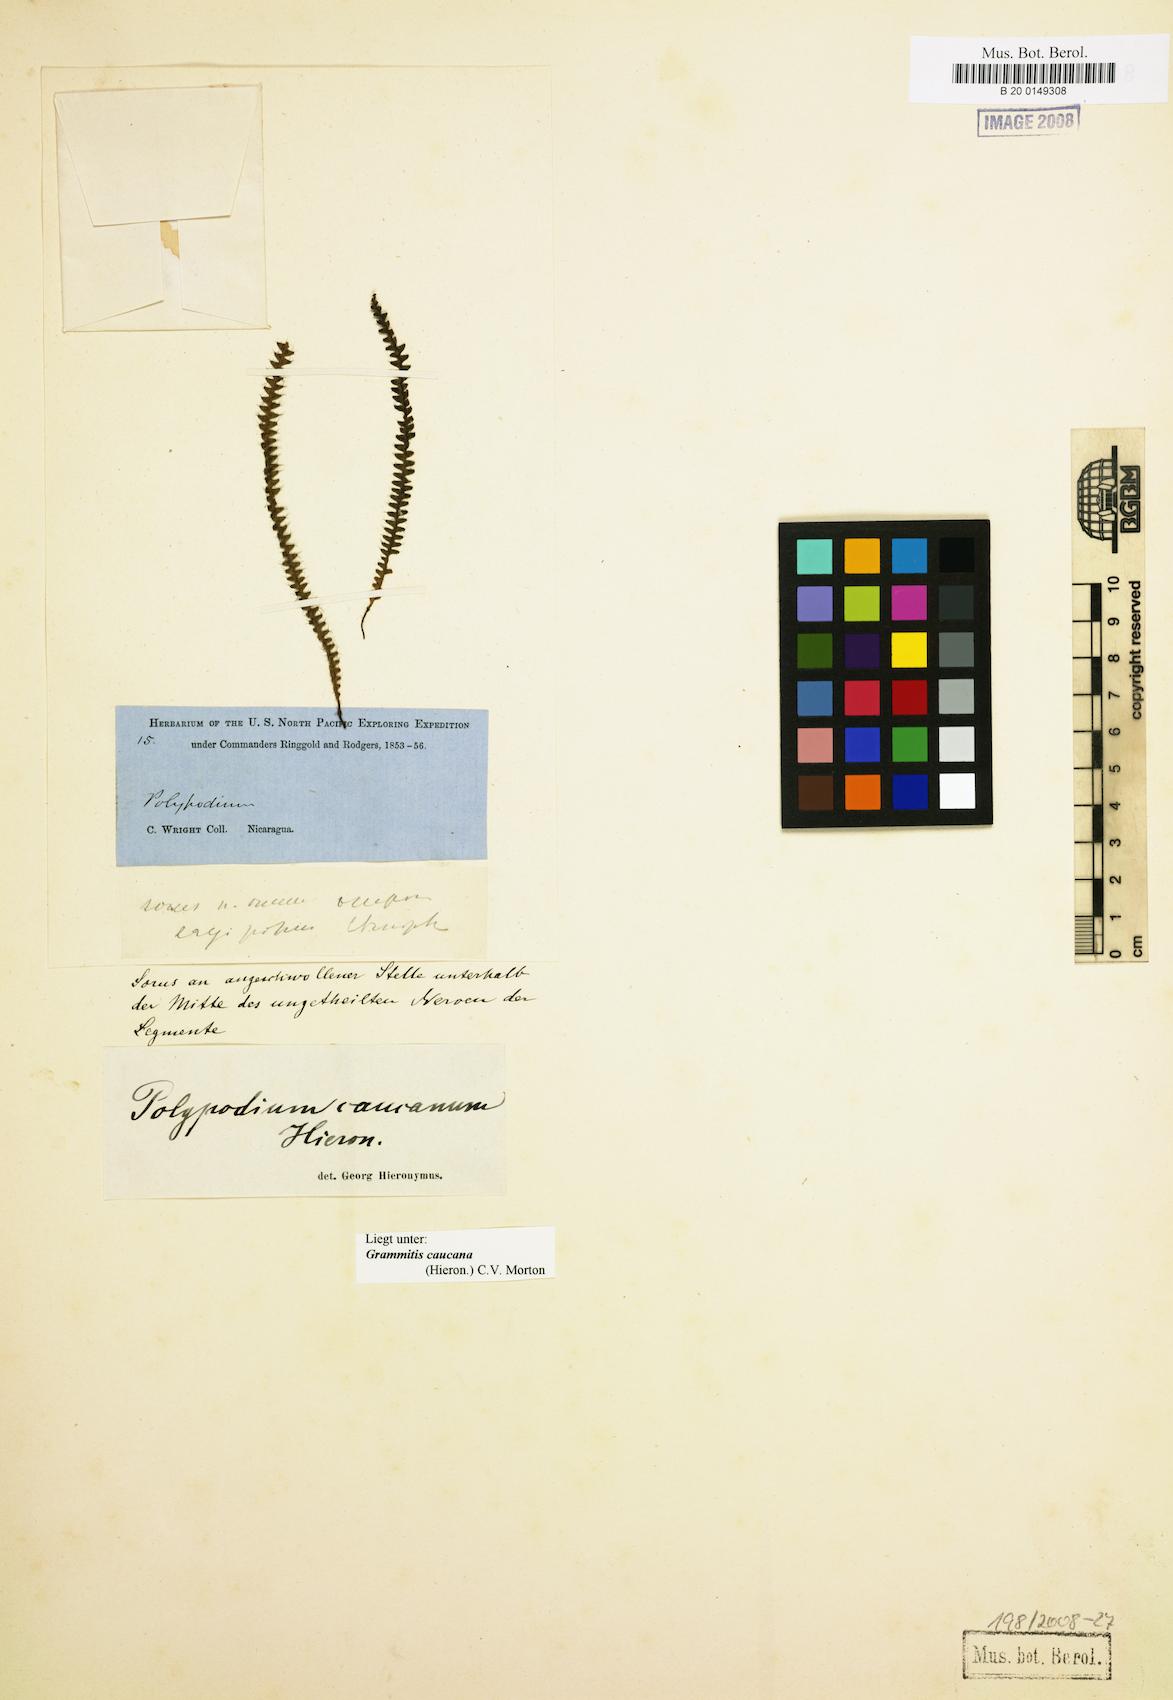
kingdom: Plantae
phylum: Tracheophyta
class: Polypodiopsida
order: Polypodiales
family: Polypodiaceae
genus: Moranopteris
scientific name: Moranopteris caucana
